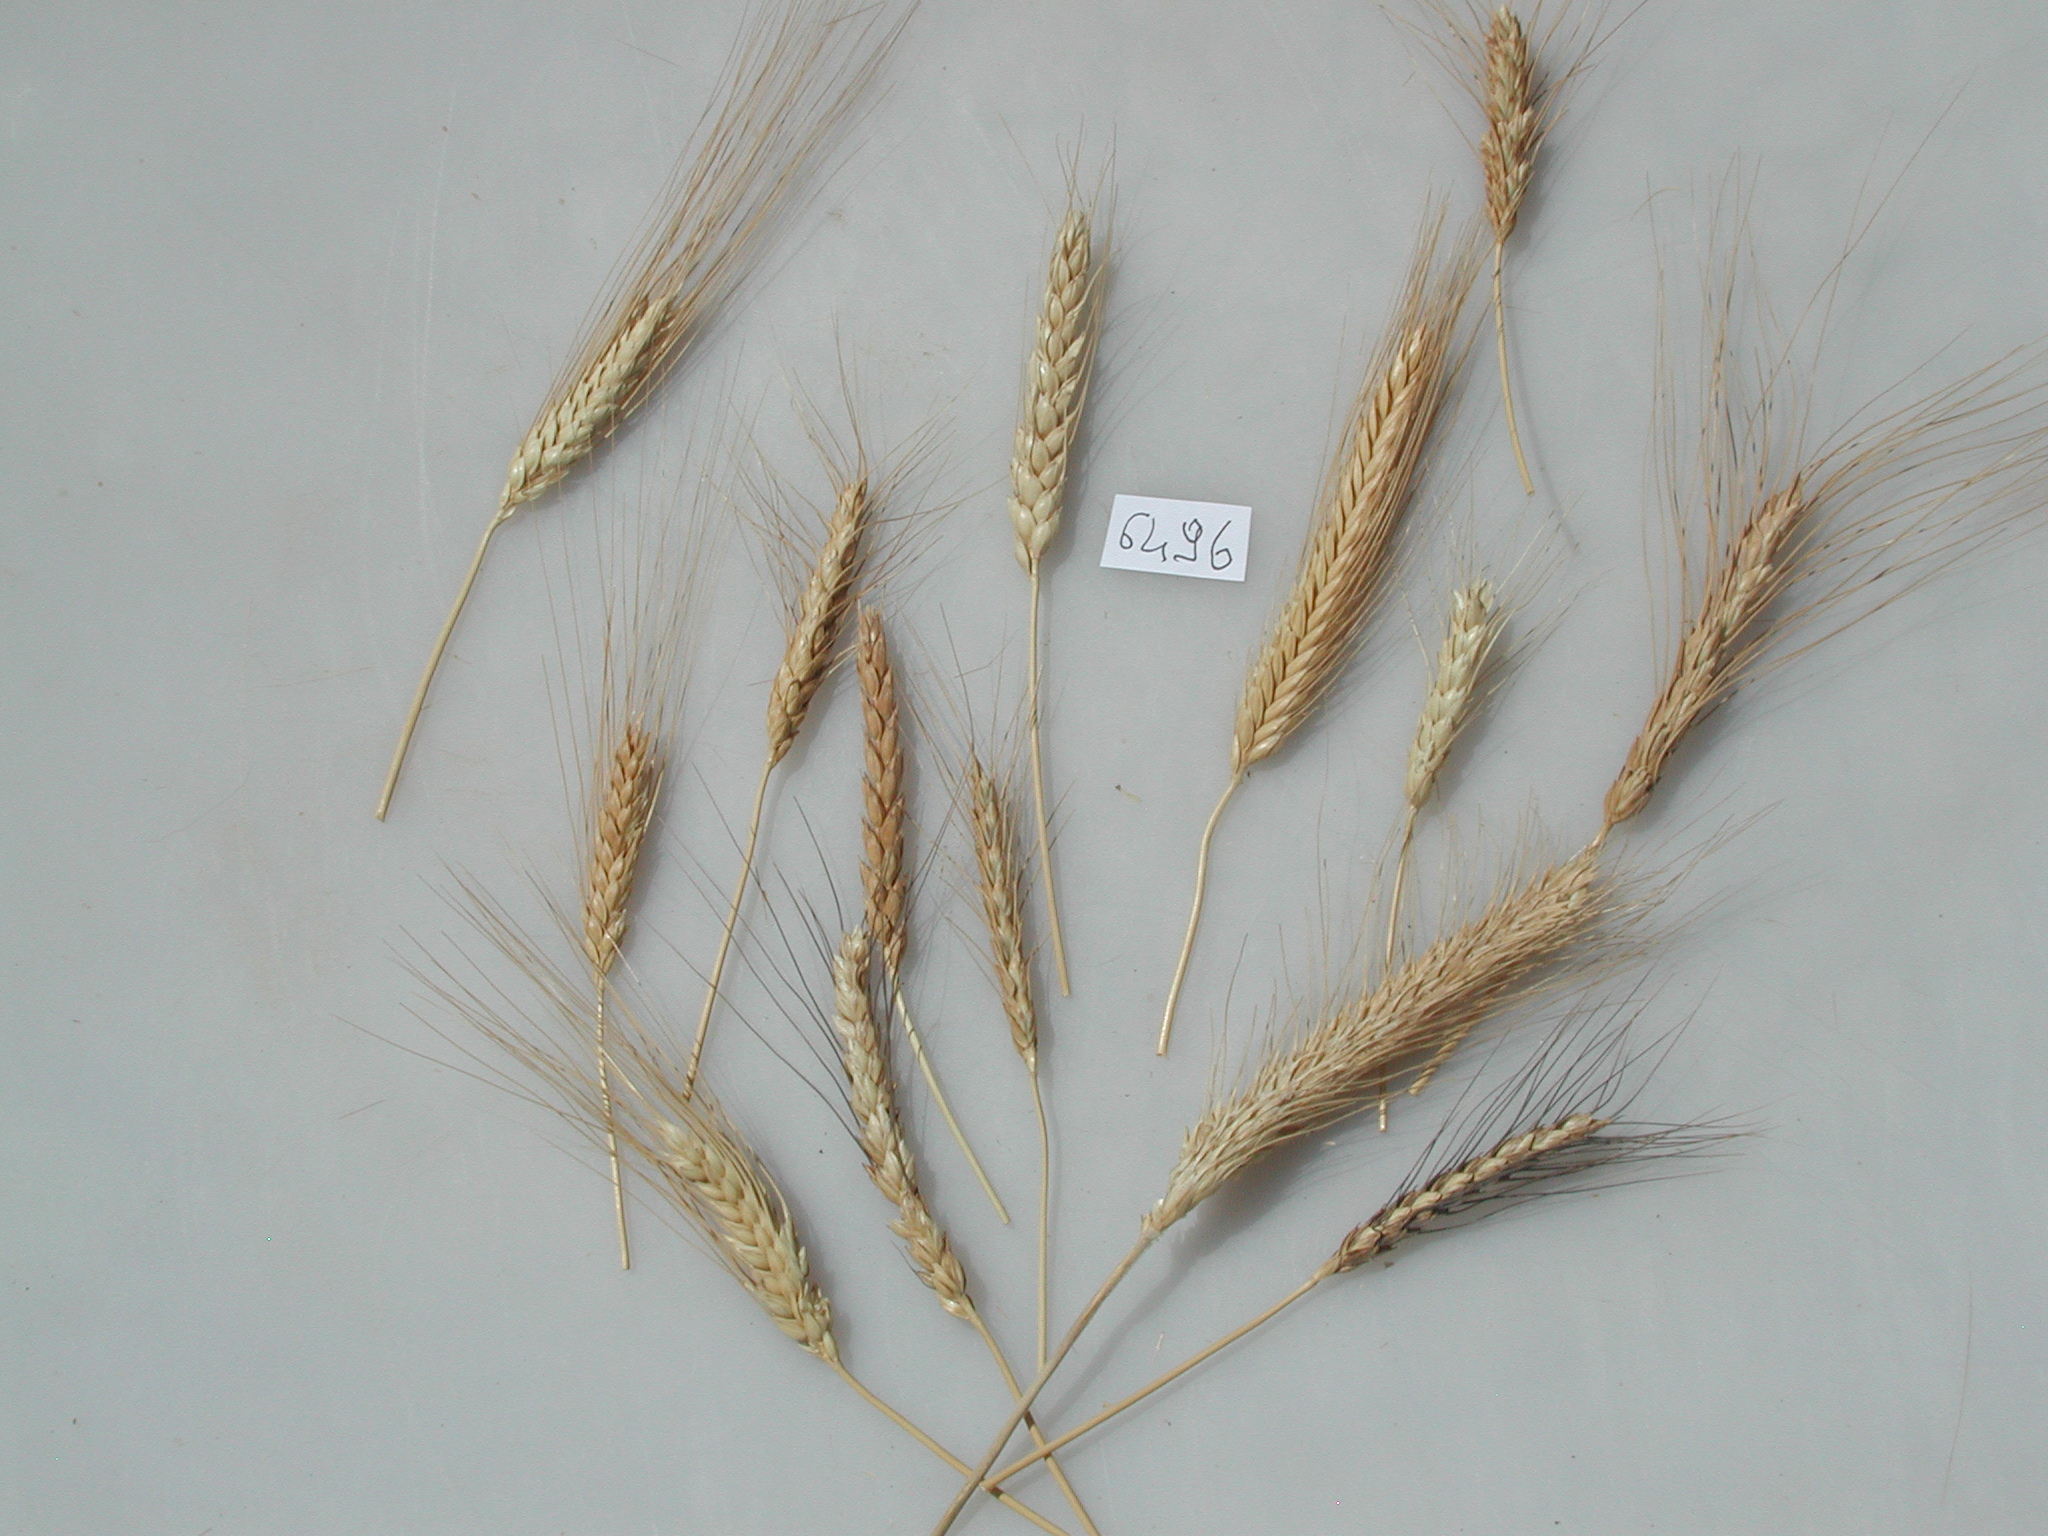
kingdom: Plantae
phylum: Tracheophyta
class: Liliopsida
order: Poales
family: Poaceae
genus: Triticum
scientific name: Triticum turgidum
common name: Wheat
